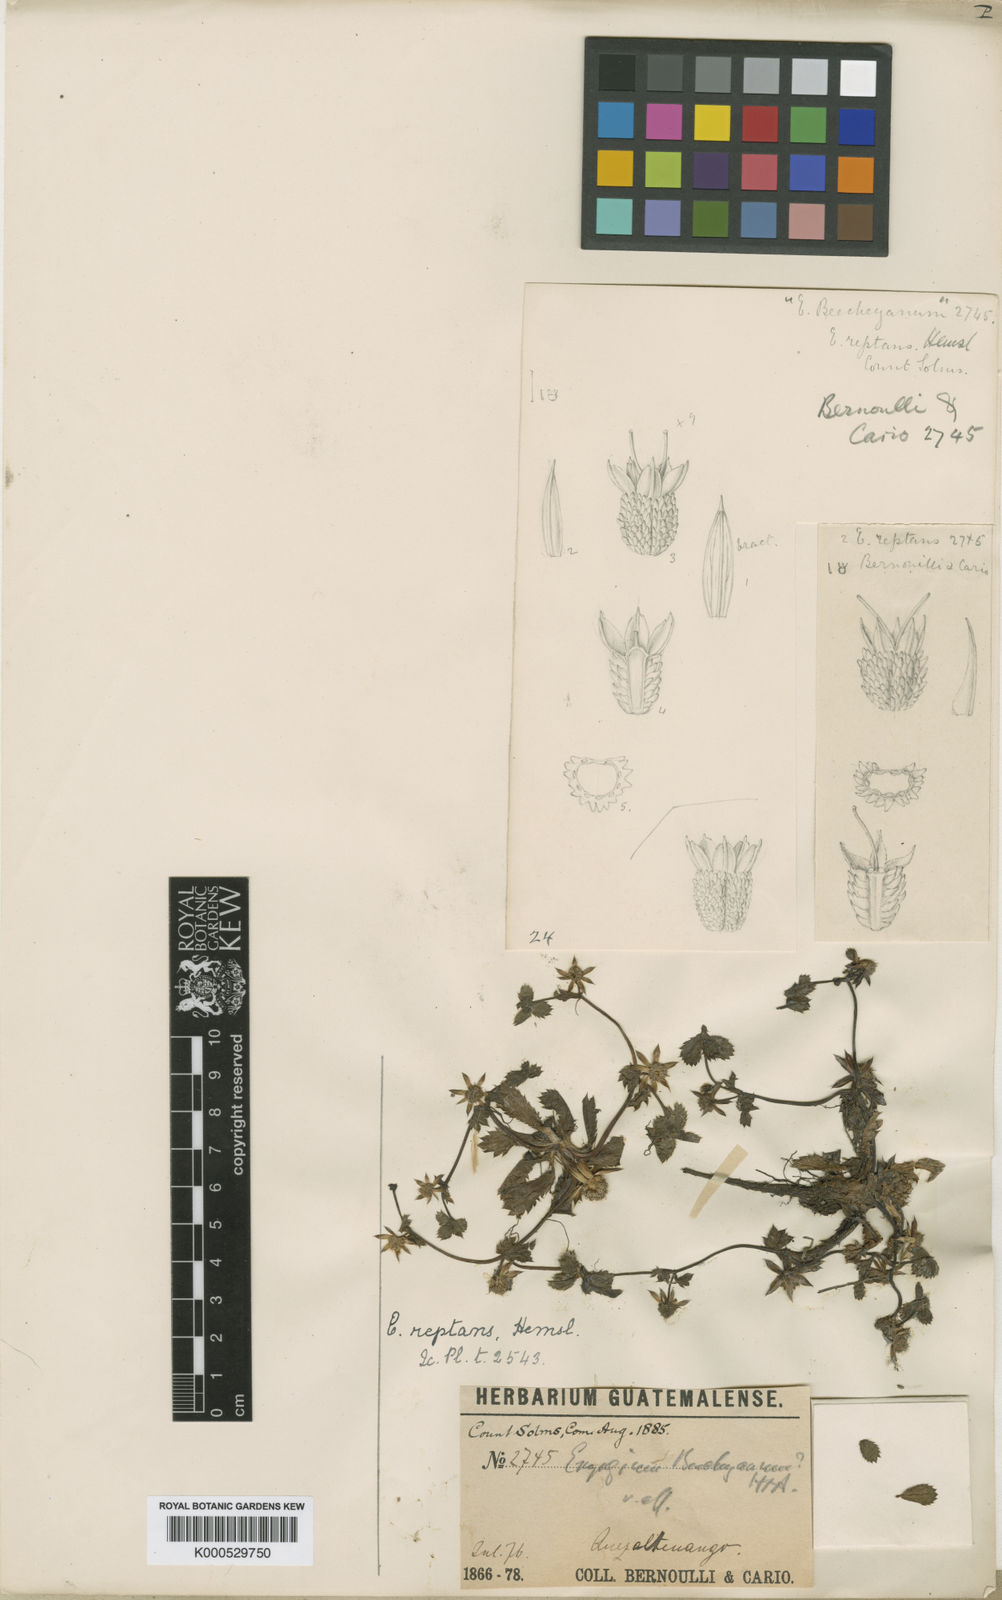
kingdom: Plantae
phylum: Tracheophyta
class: Magnoliopsida
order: Apiales
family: Apiaceae
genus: Eryngium
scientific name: Eryngium carlinae
